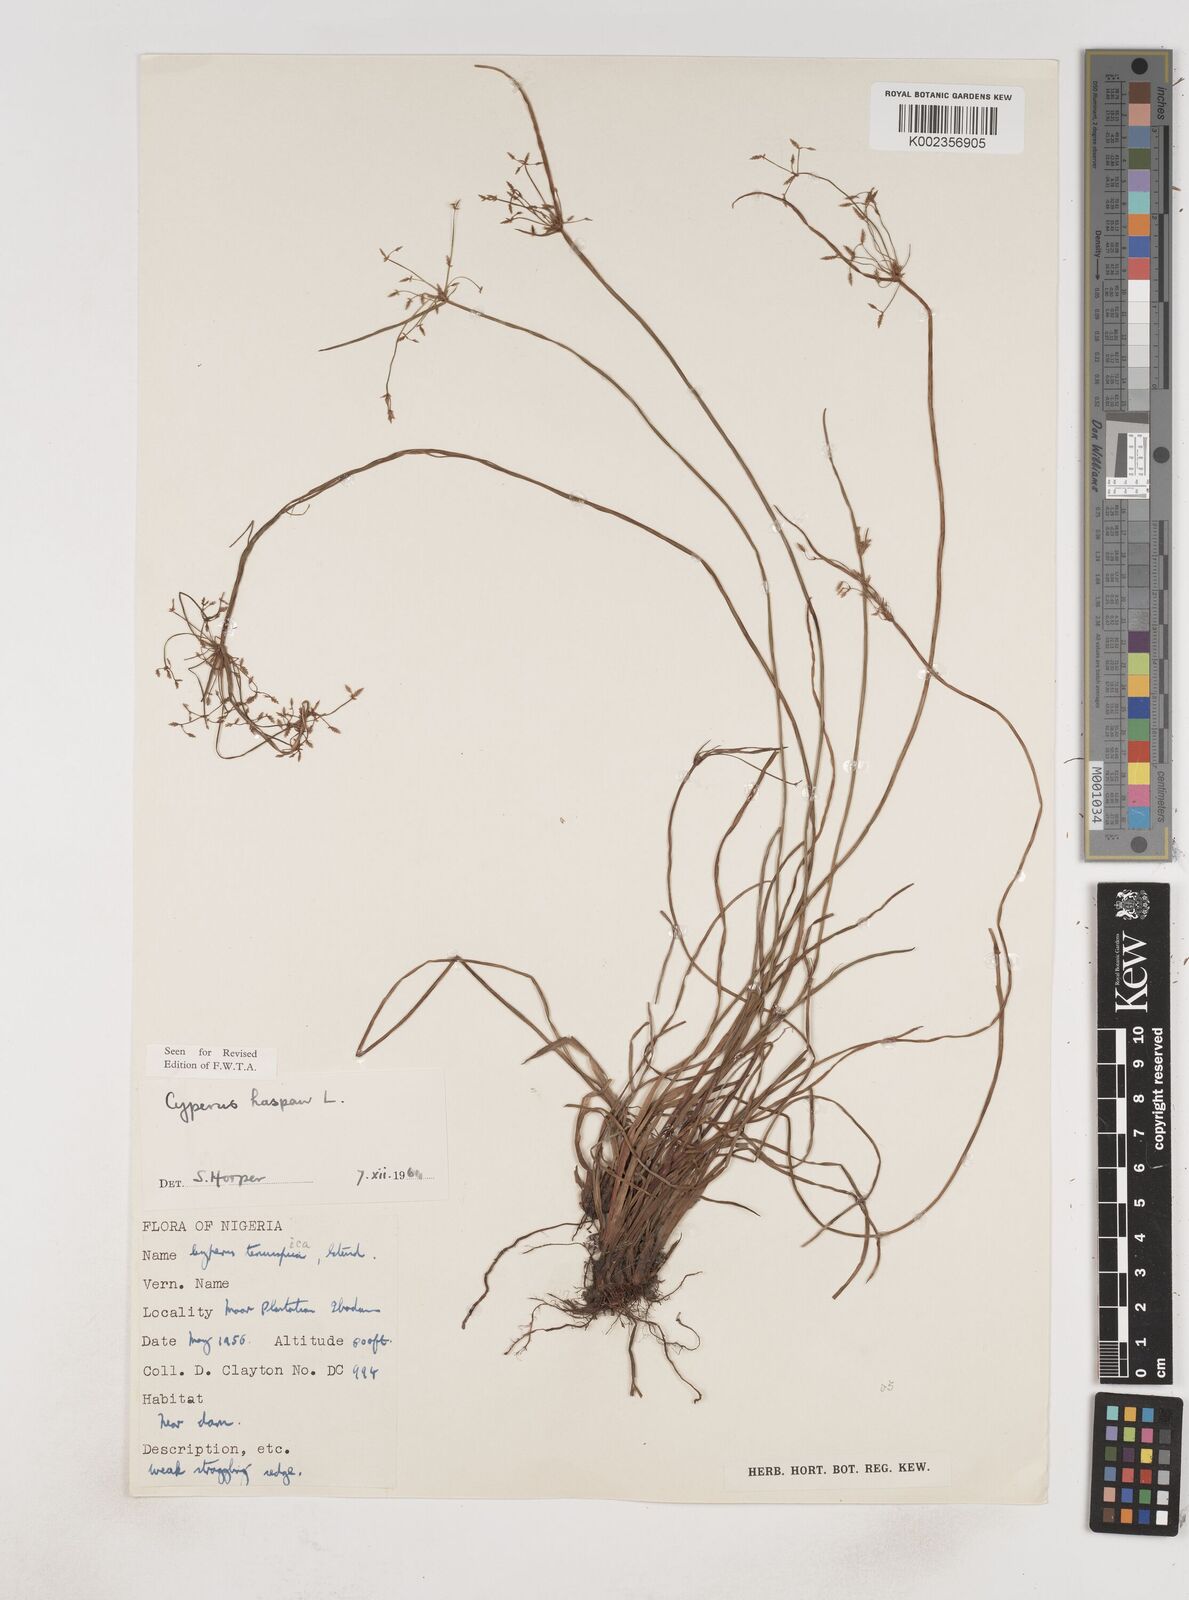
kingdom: Plantae
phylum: Tracheophyta
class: Liliopsida
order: Poales
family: Cyperaceae
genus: Cyperus
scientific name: Cyperus haspan
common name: Haspan flatsedge
